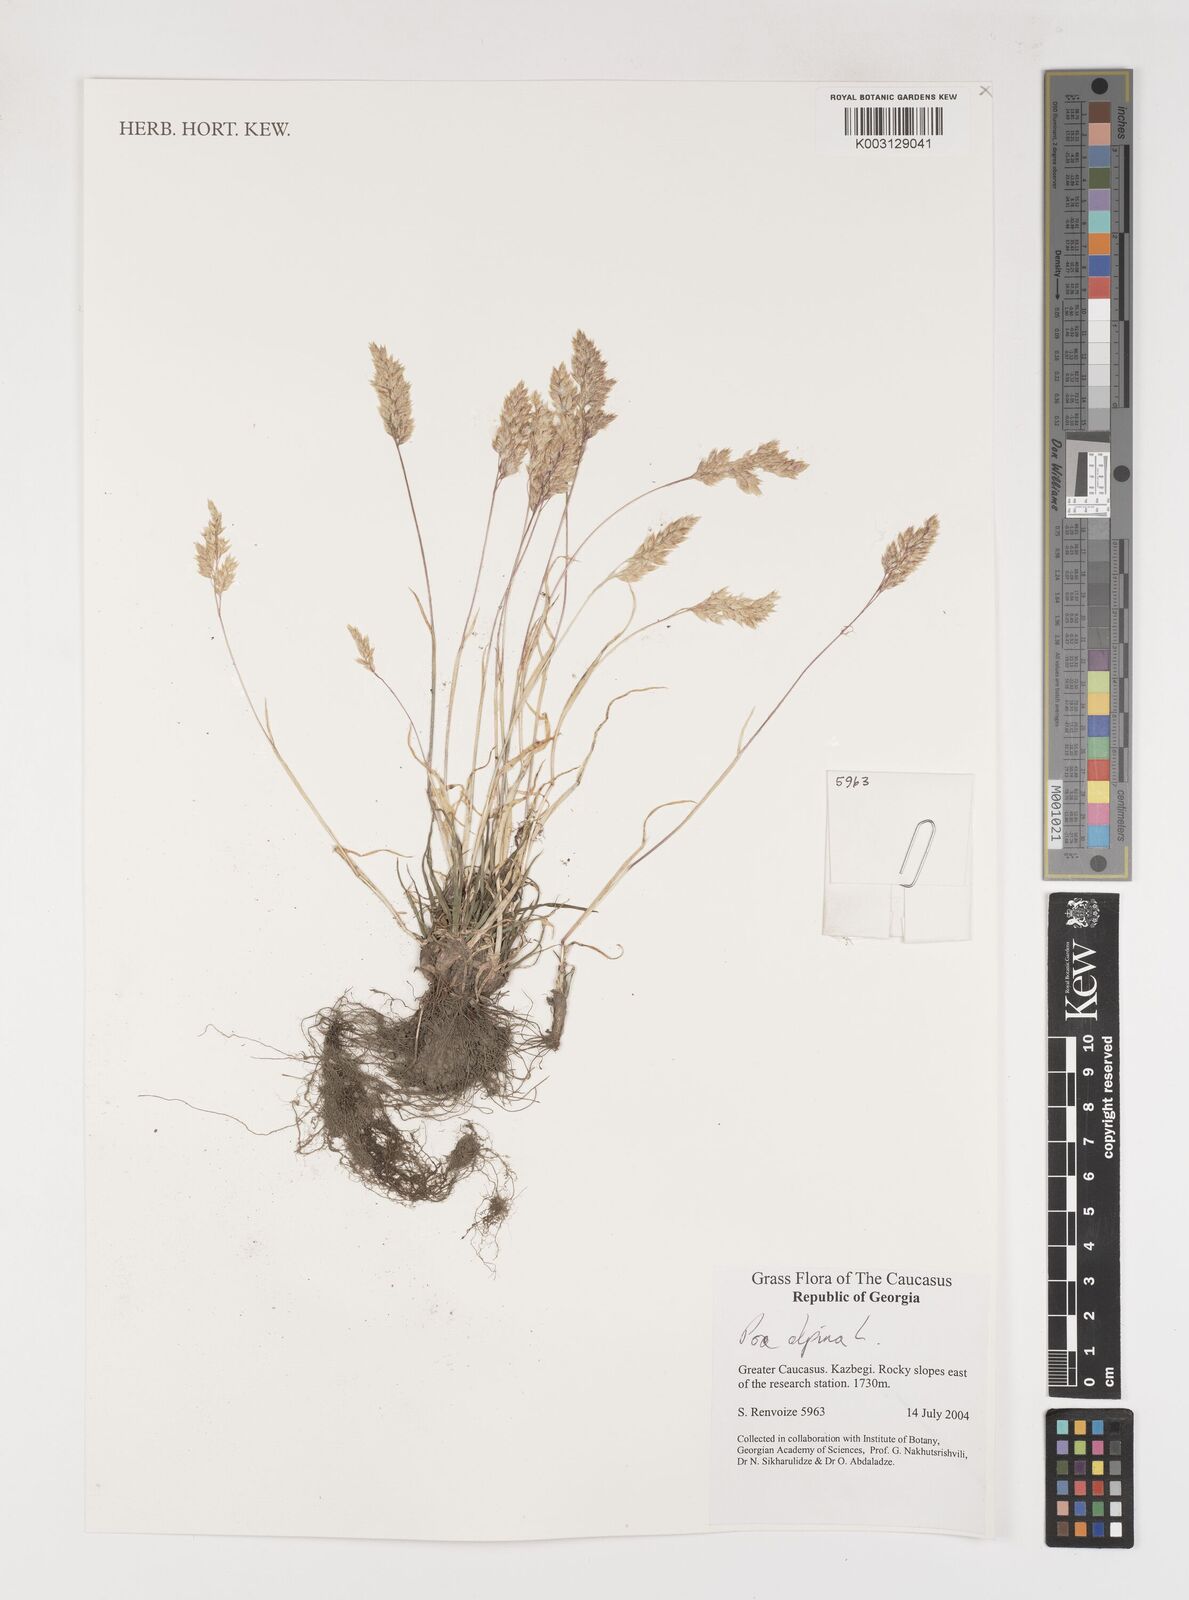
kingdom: Plantae
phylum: Tracheophyta
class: Liliopsida
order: Poales
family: Poaceae
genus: Poa
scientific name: Poa alpina
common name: Alpine bluegrass
